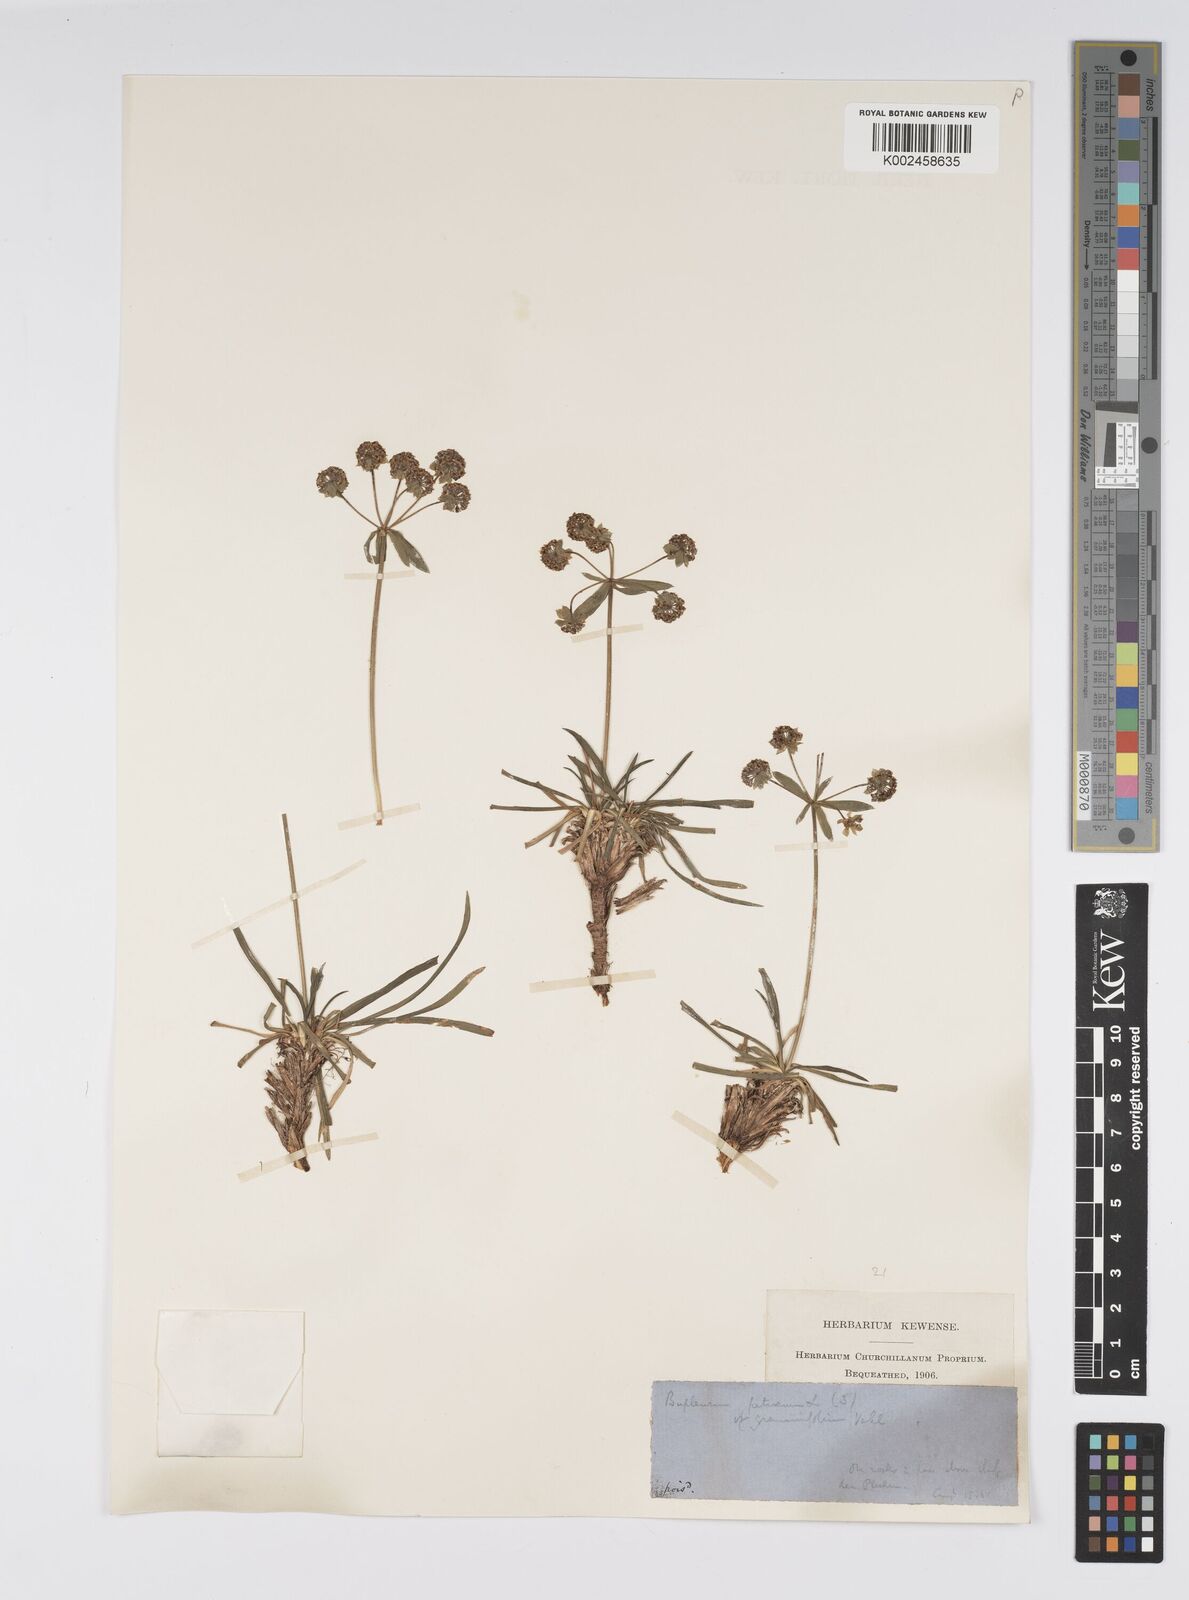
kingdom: Plantae
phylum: Tracheophyta
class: Magnoliopsida
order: Apiales
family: Apiaceae
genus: Bupleurum
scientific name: Bupleurum petraeum
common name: Rock hare's-ear
